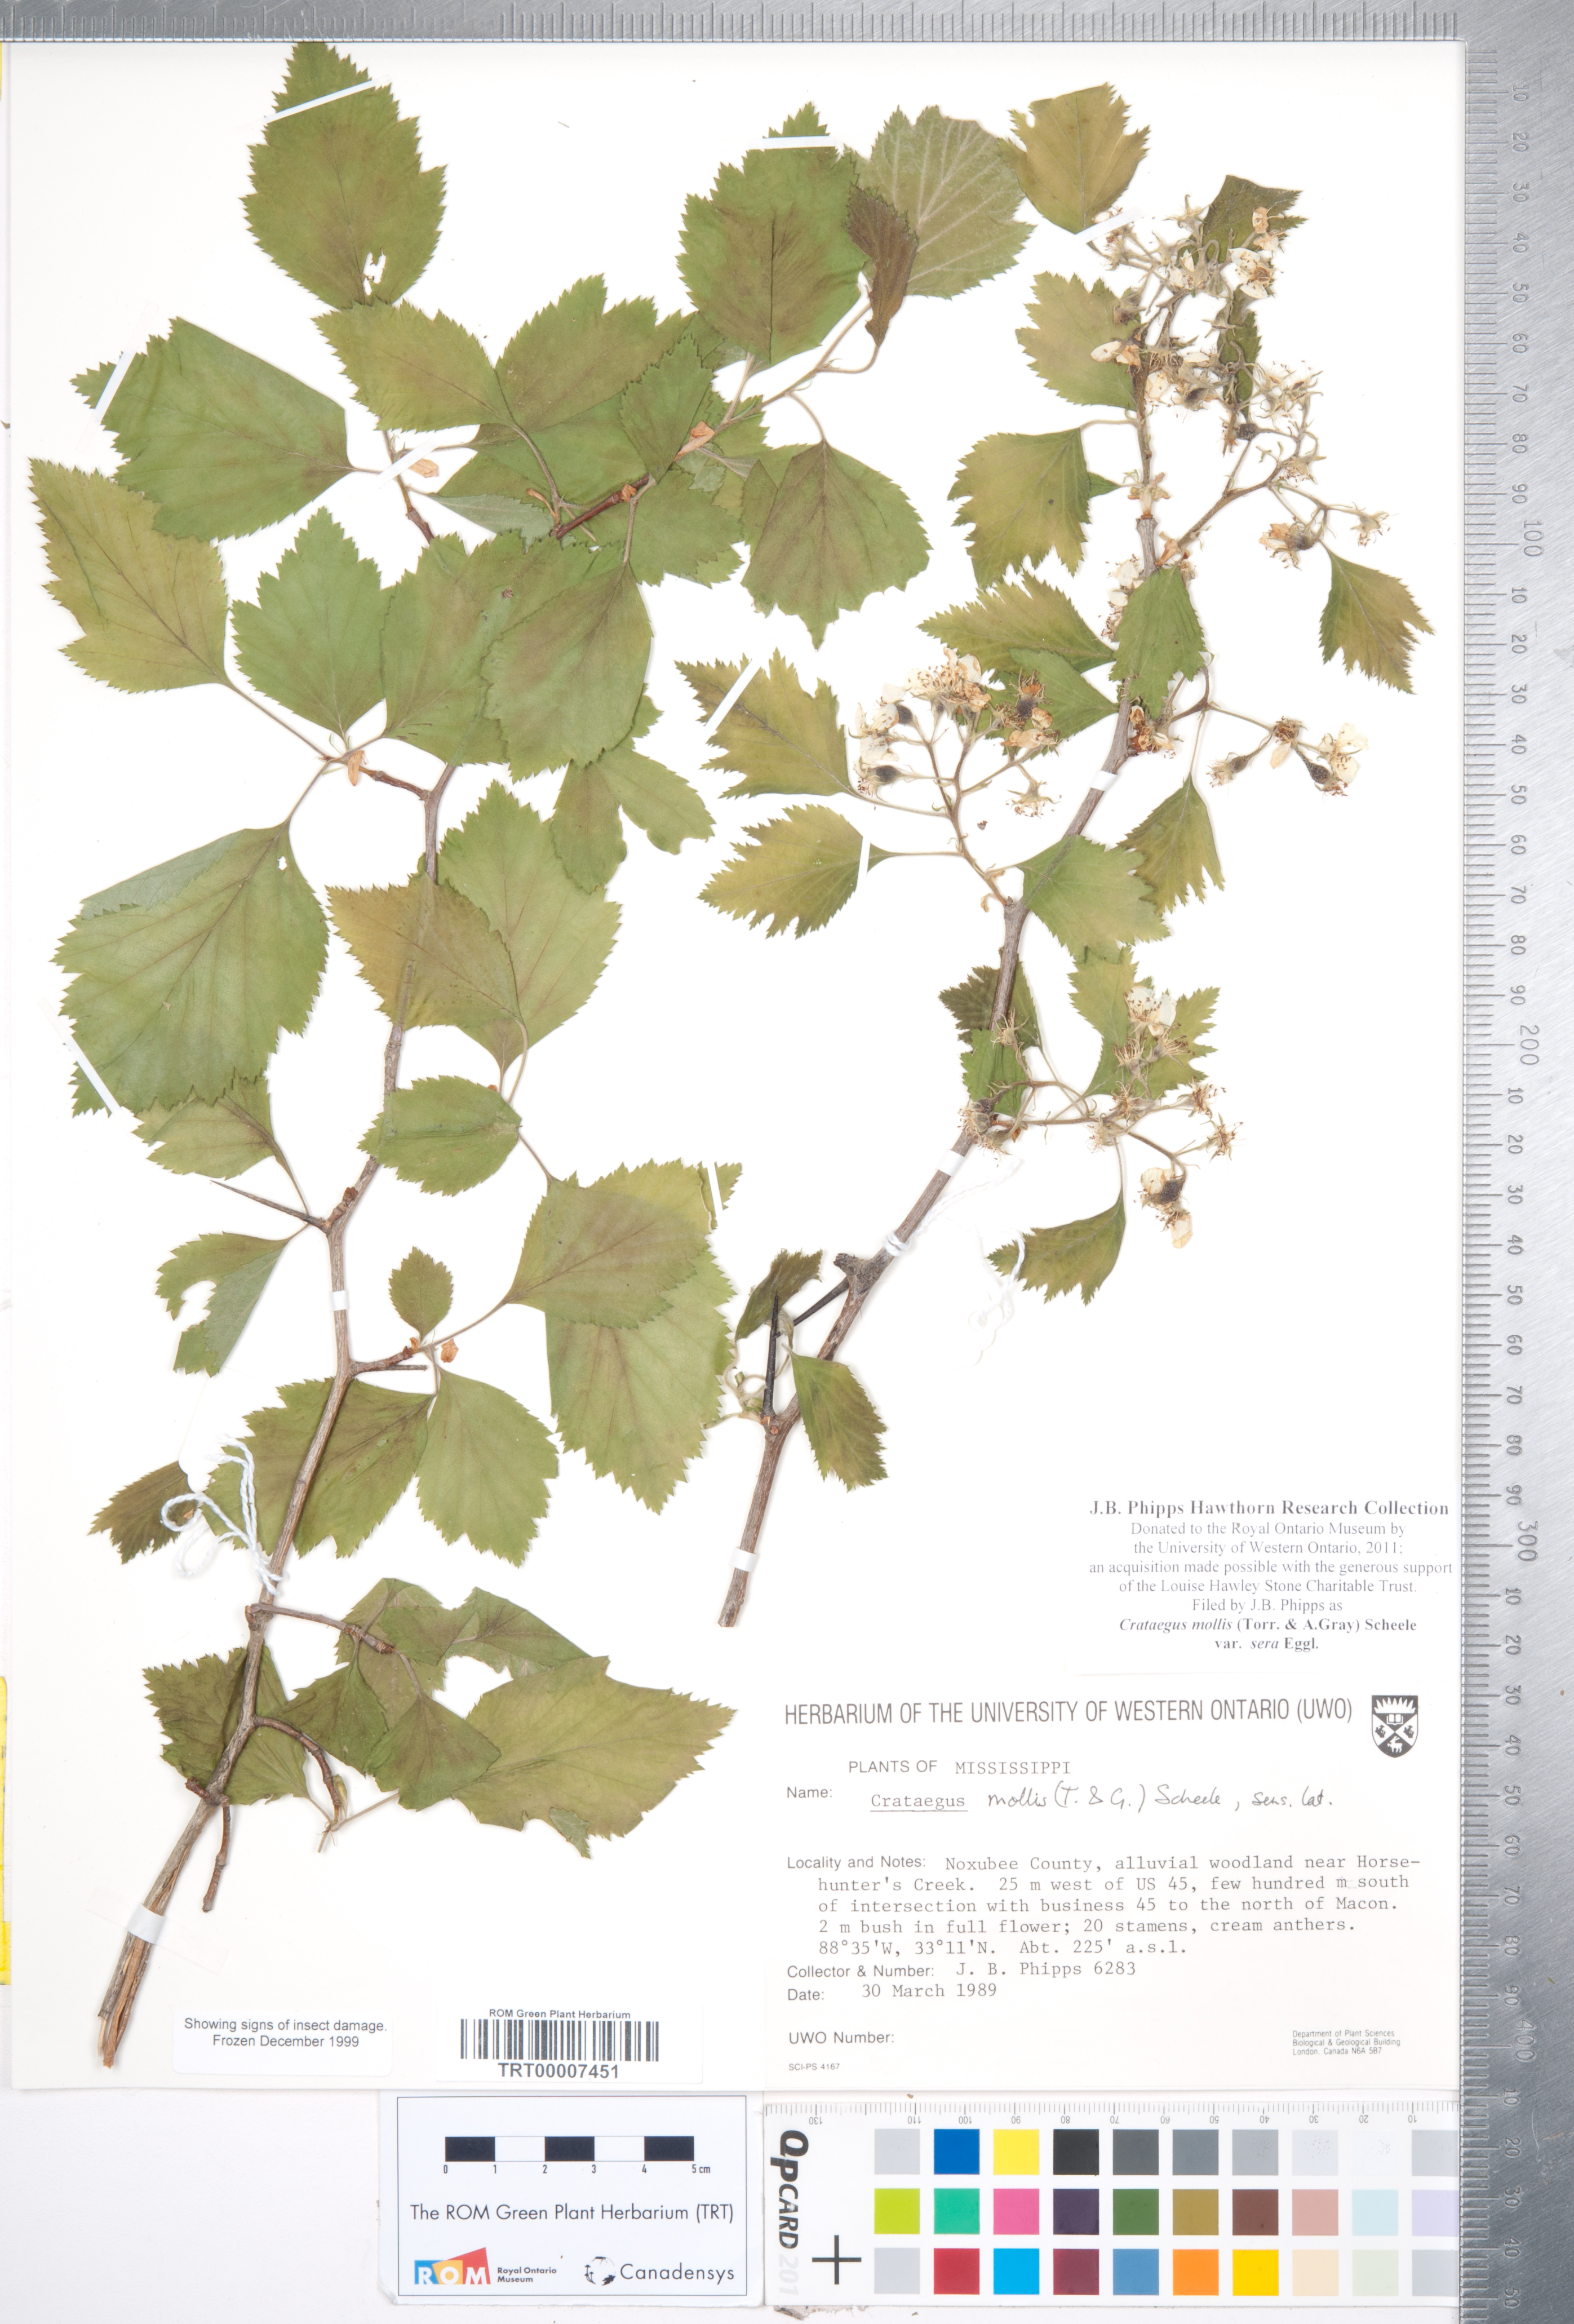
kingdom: Plantae
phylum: Tracheophyta
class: Magnoliopsida
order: Rosales
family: Rosaceae
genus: Crataegus
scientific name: Crataegus mollis
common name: Downy hawthorn
